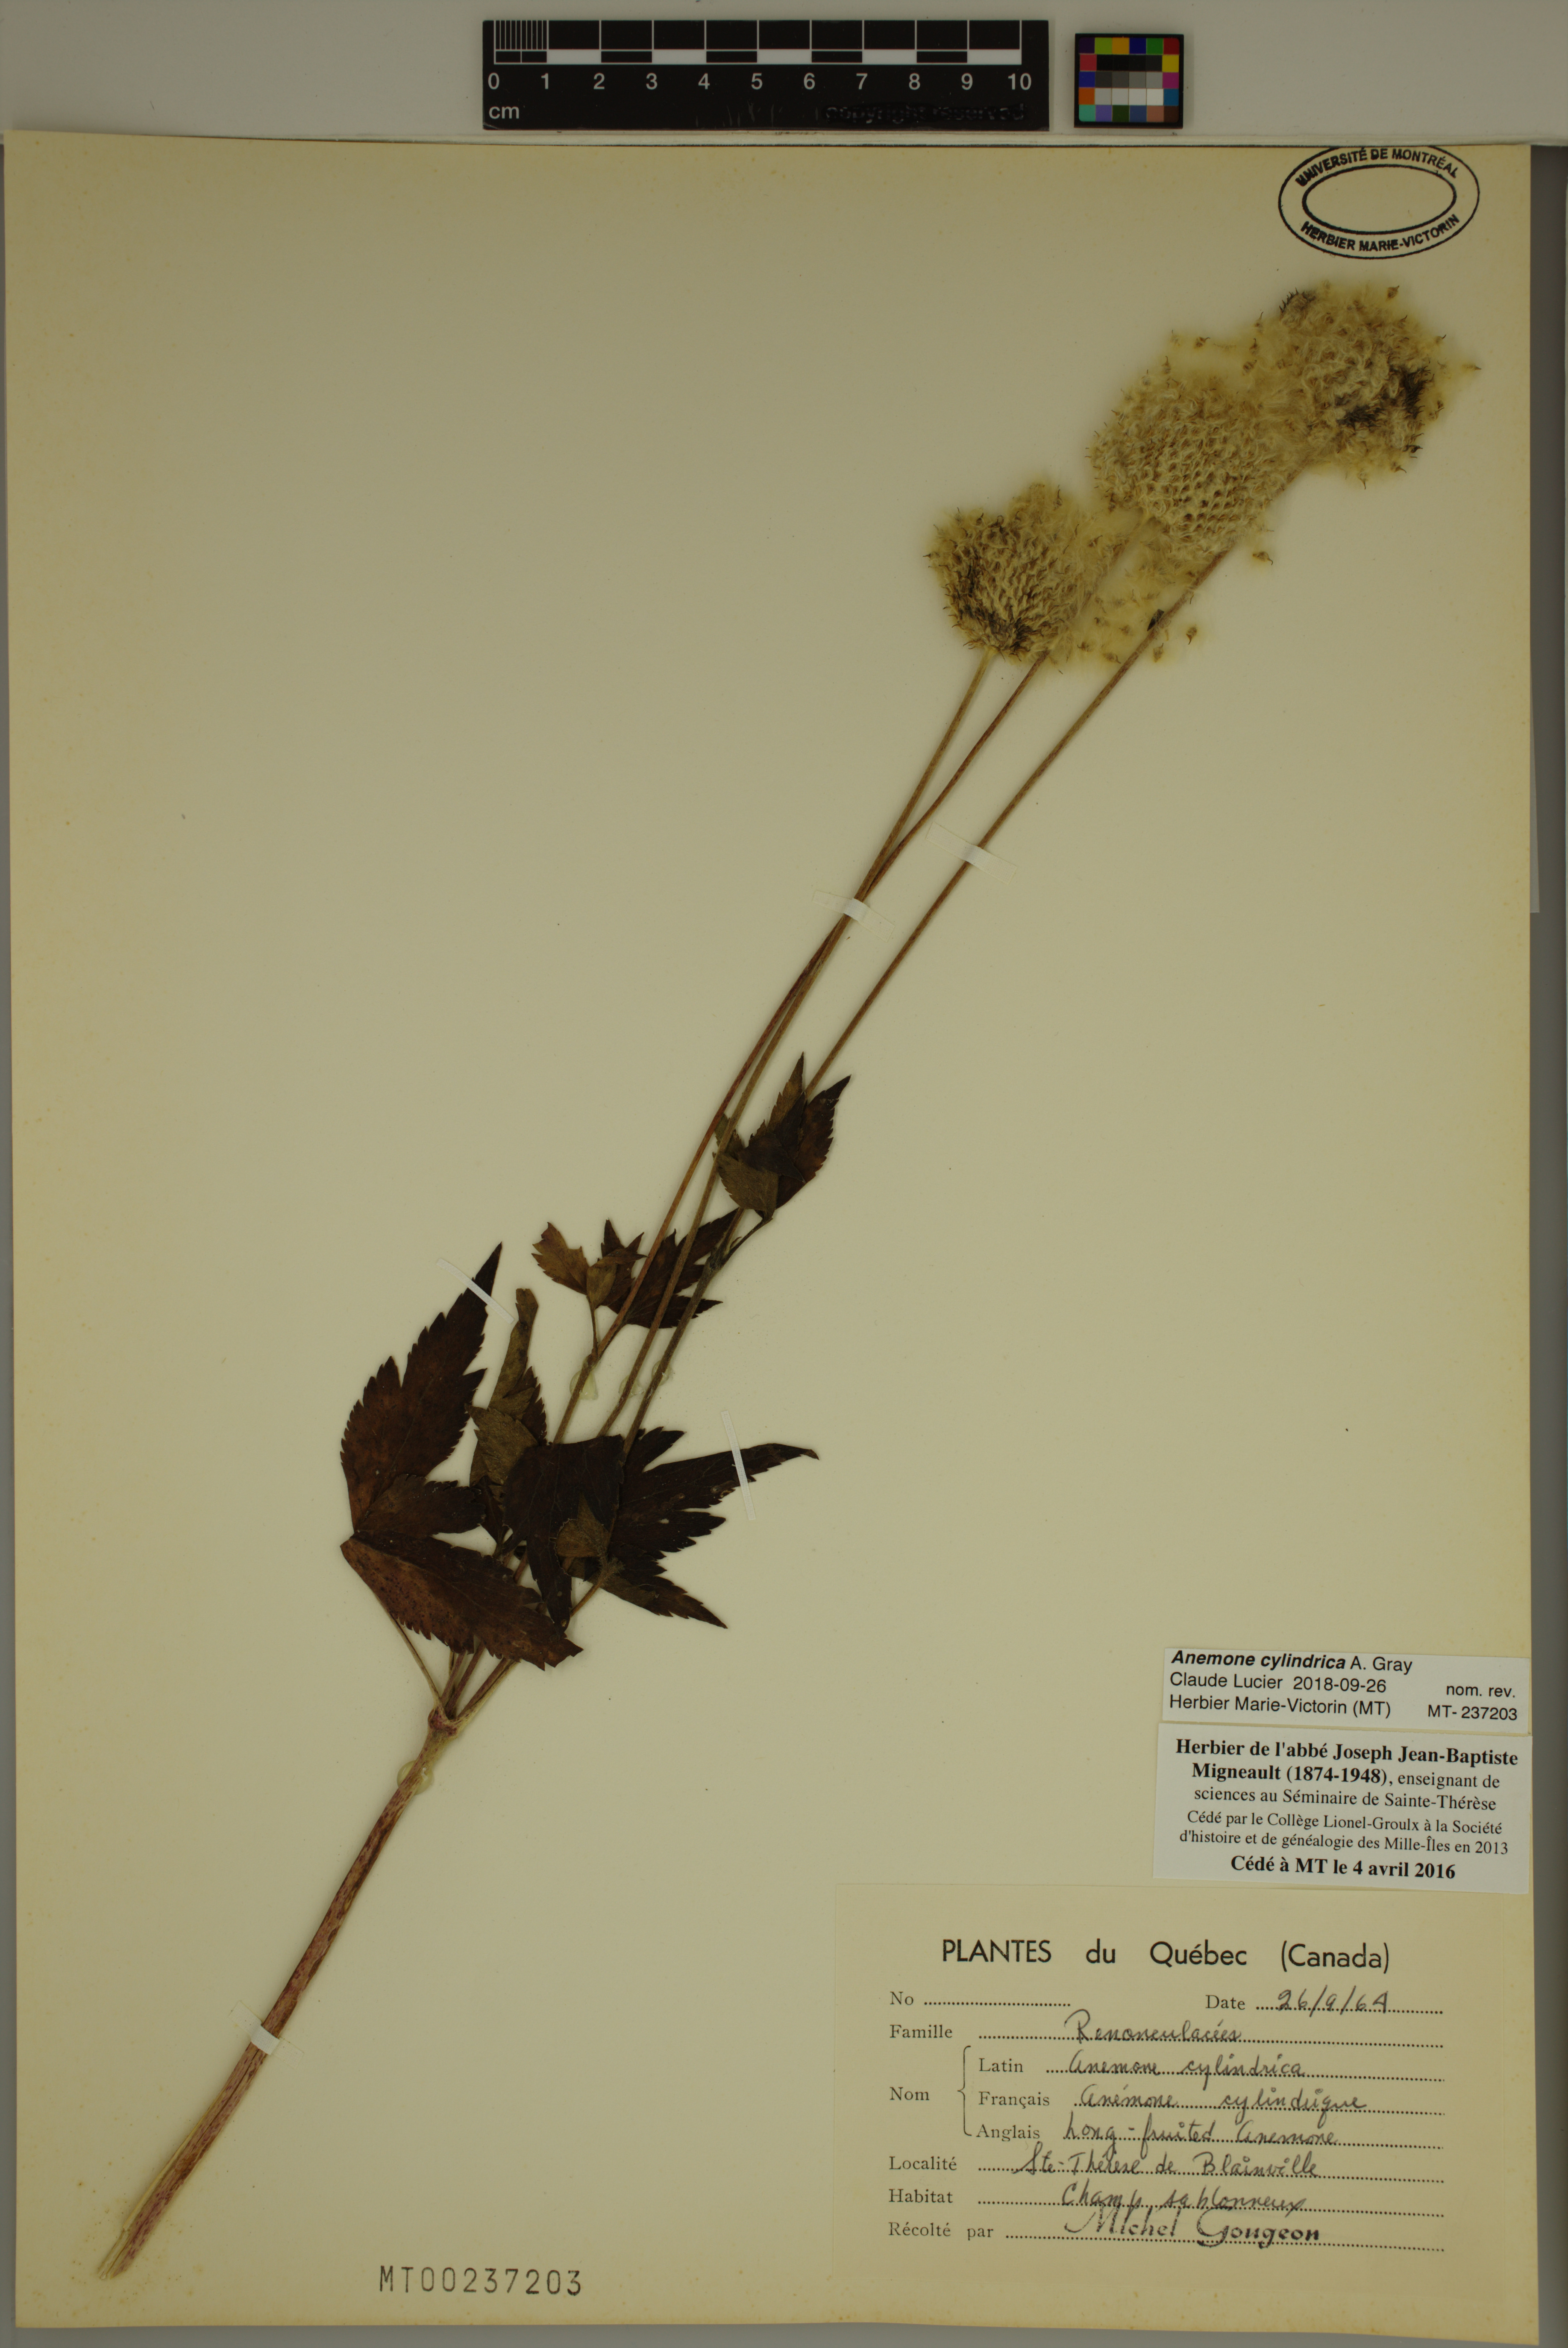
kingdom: Plantae
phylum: Tracheophyta
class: Magnoliopsida
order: Ranunculales
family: Ranunculaceae
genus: Anemone
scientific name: Anemone cylindrica
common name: Candle anemone
